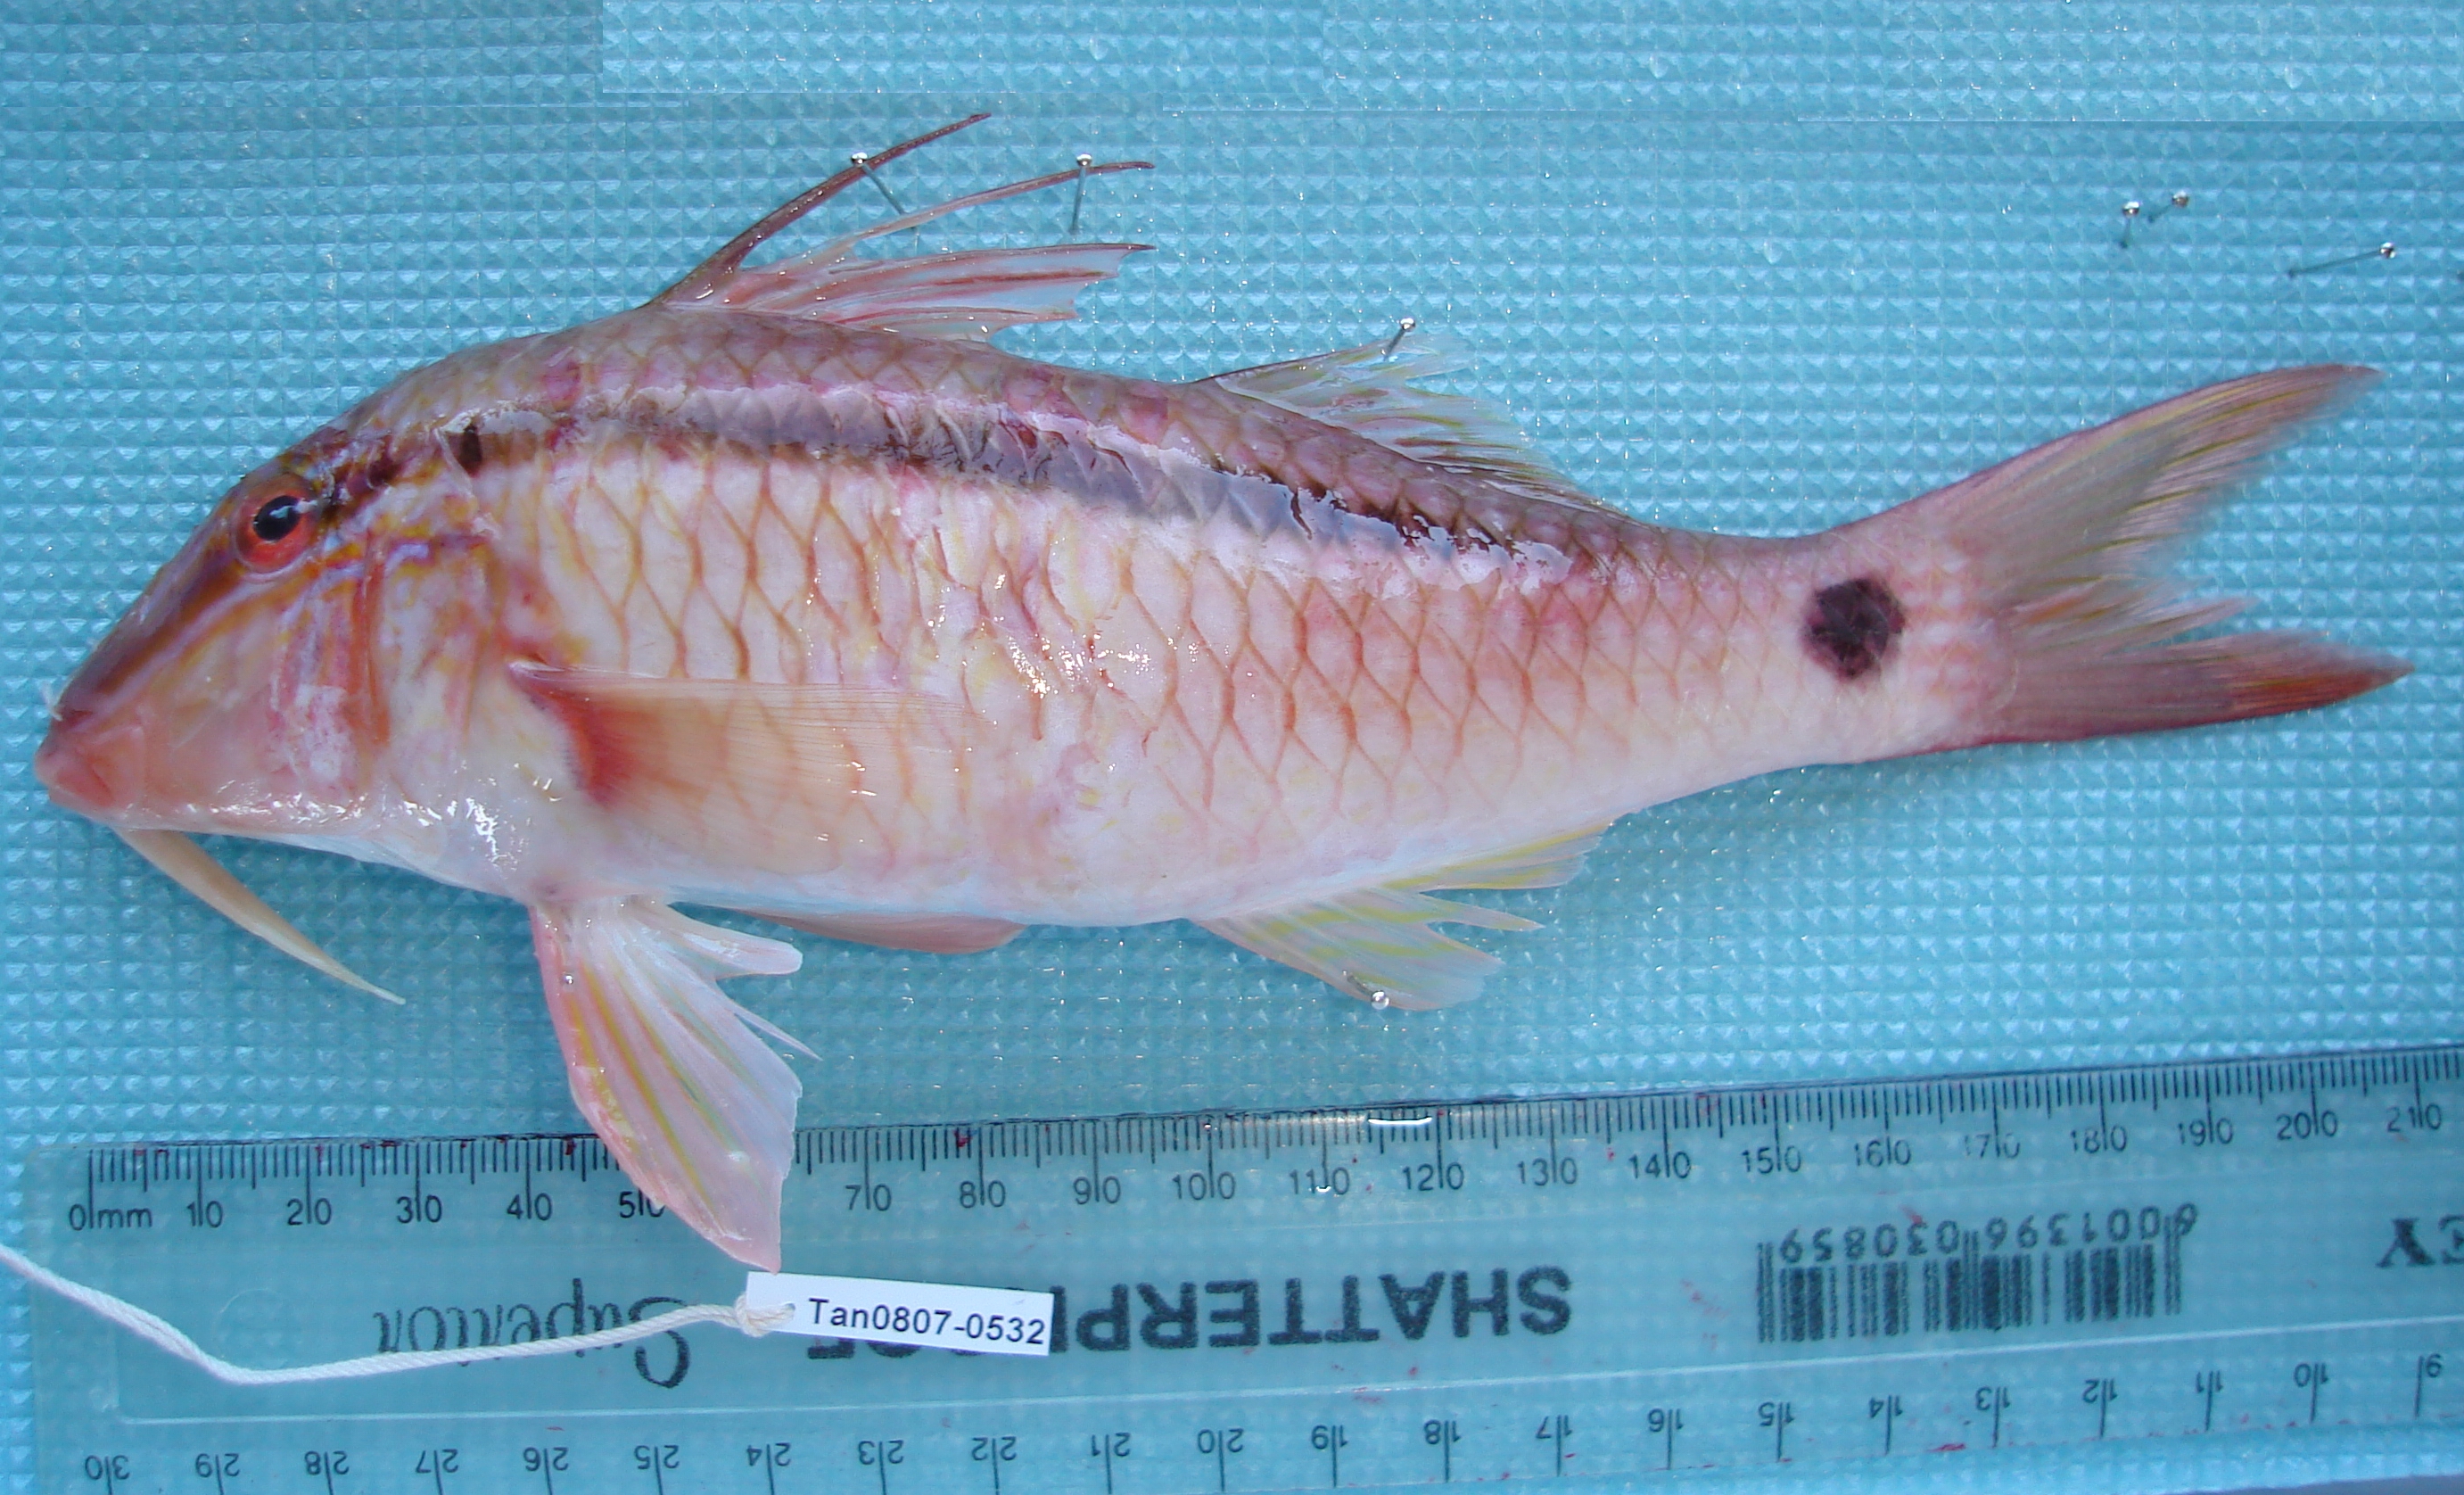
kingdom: Animalia
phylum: Chordata
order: Perciformes
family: Mullidae
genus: Parupeneus
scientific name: Parupeneus barberinus
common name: Dash-and-dot goatfish
